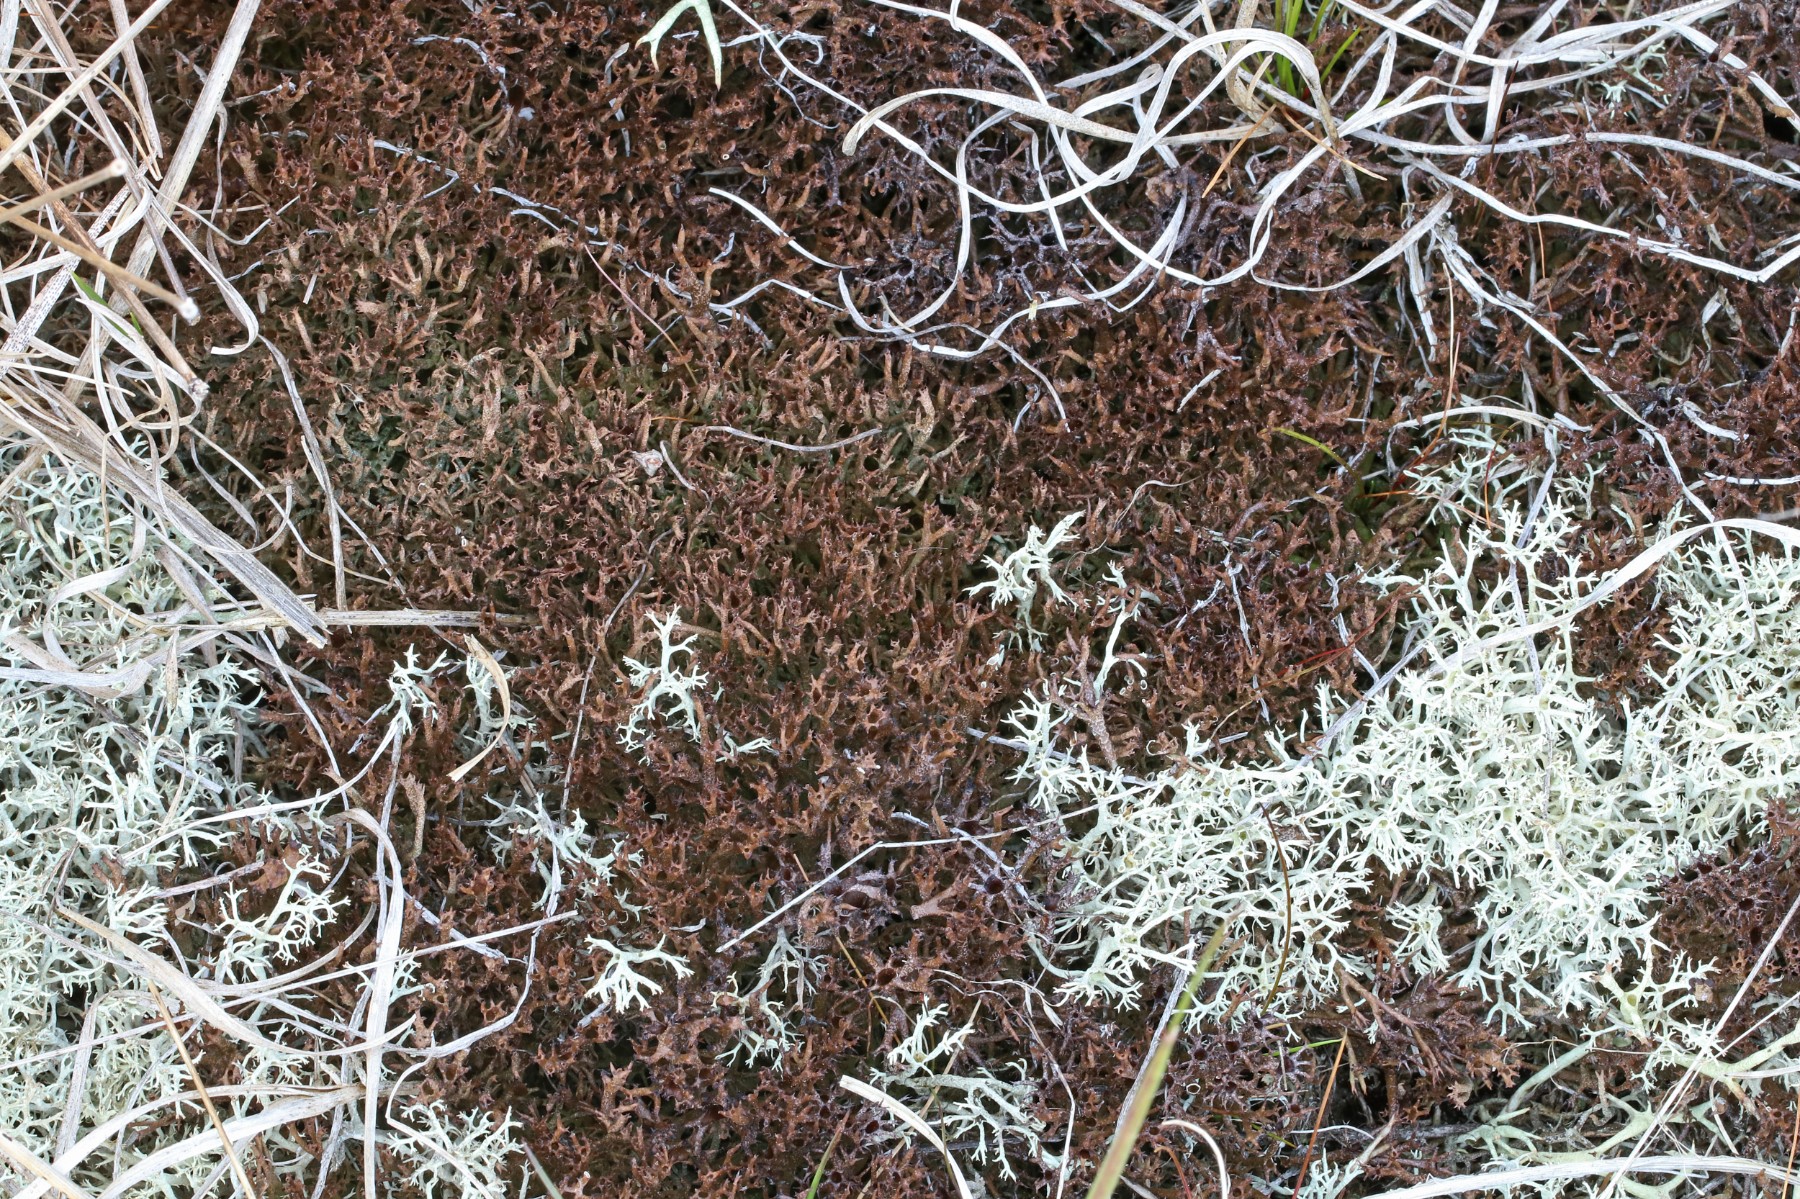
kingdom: Fungi
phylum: Ascomycota
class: Lecanoromycetes
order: Lecanorales
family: Cladoniaceae
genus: Cladonia
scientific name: Cladonia crispata
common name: takket bægerlav
